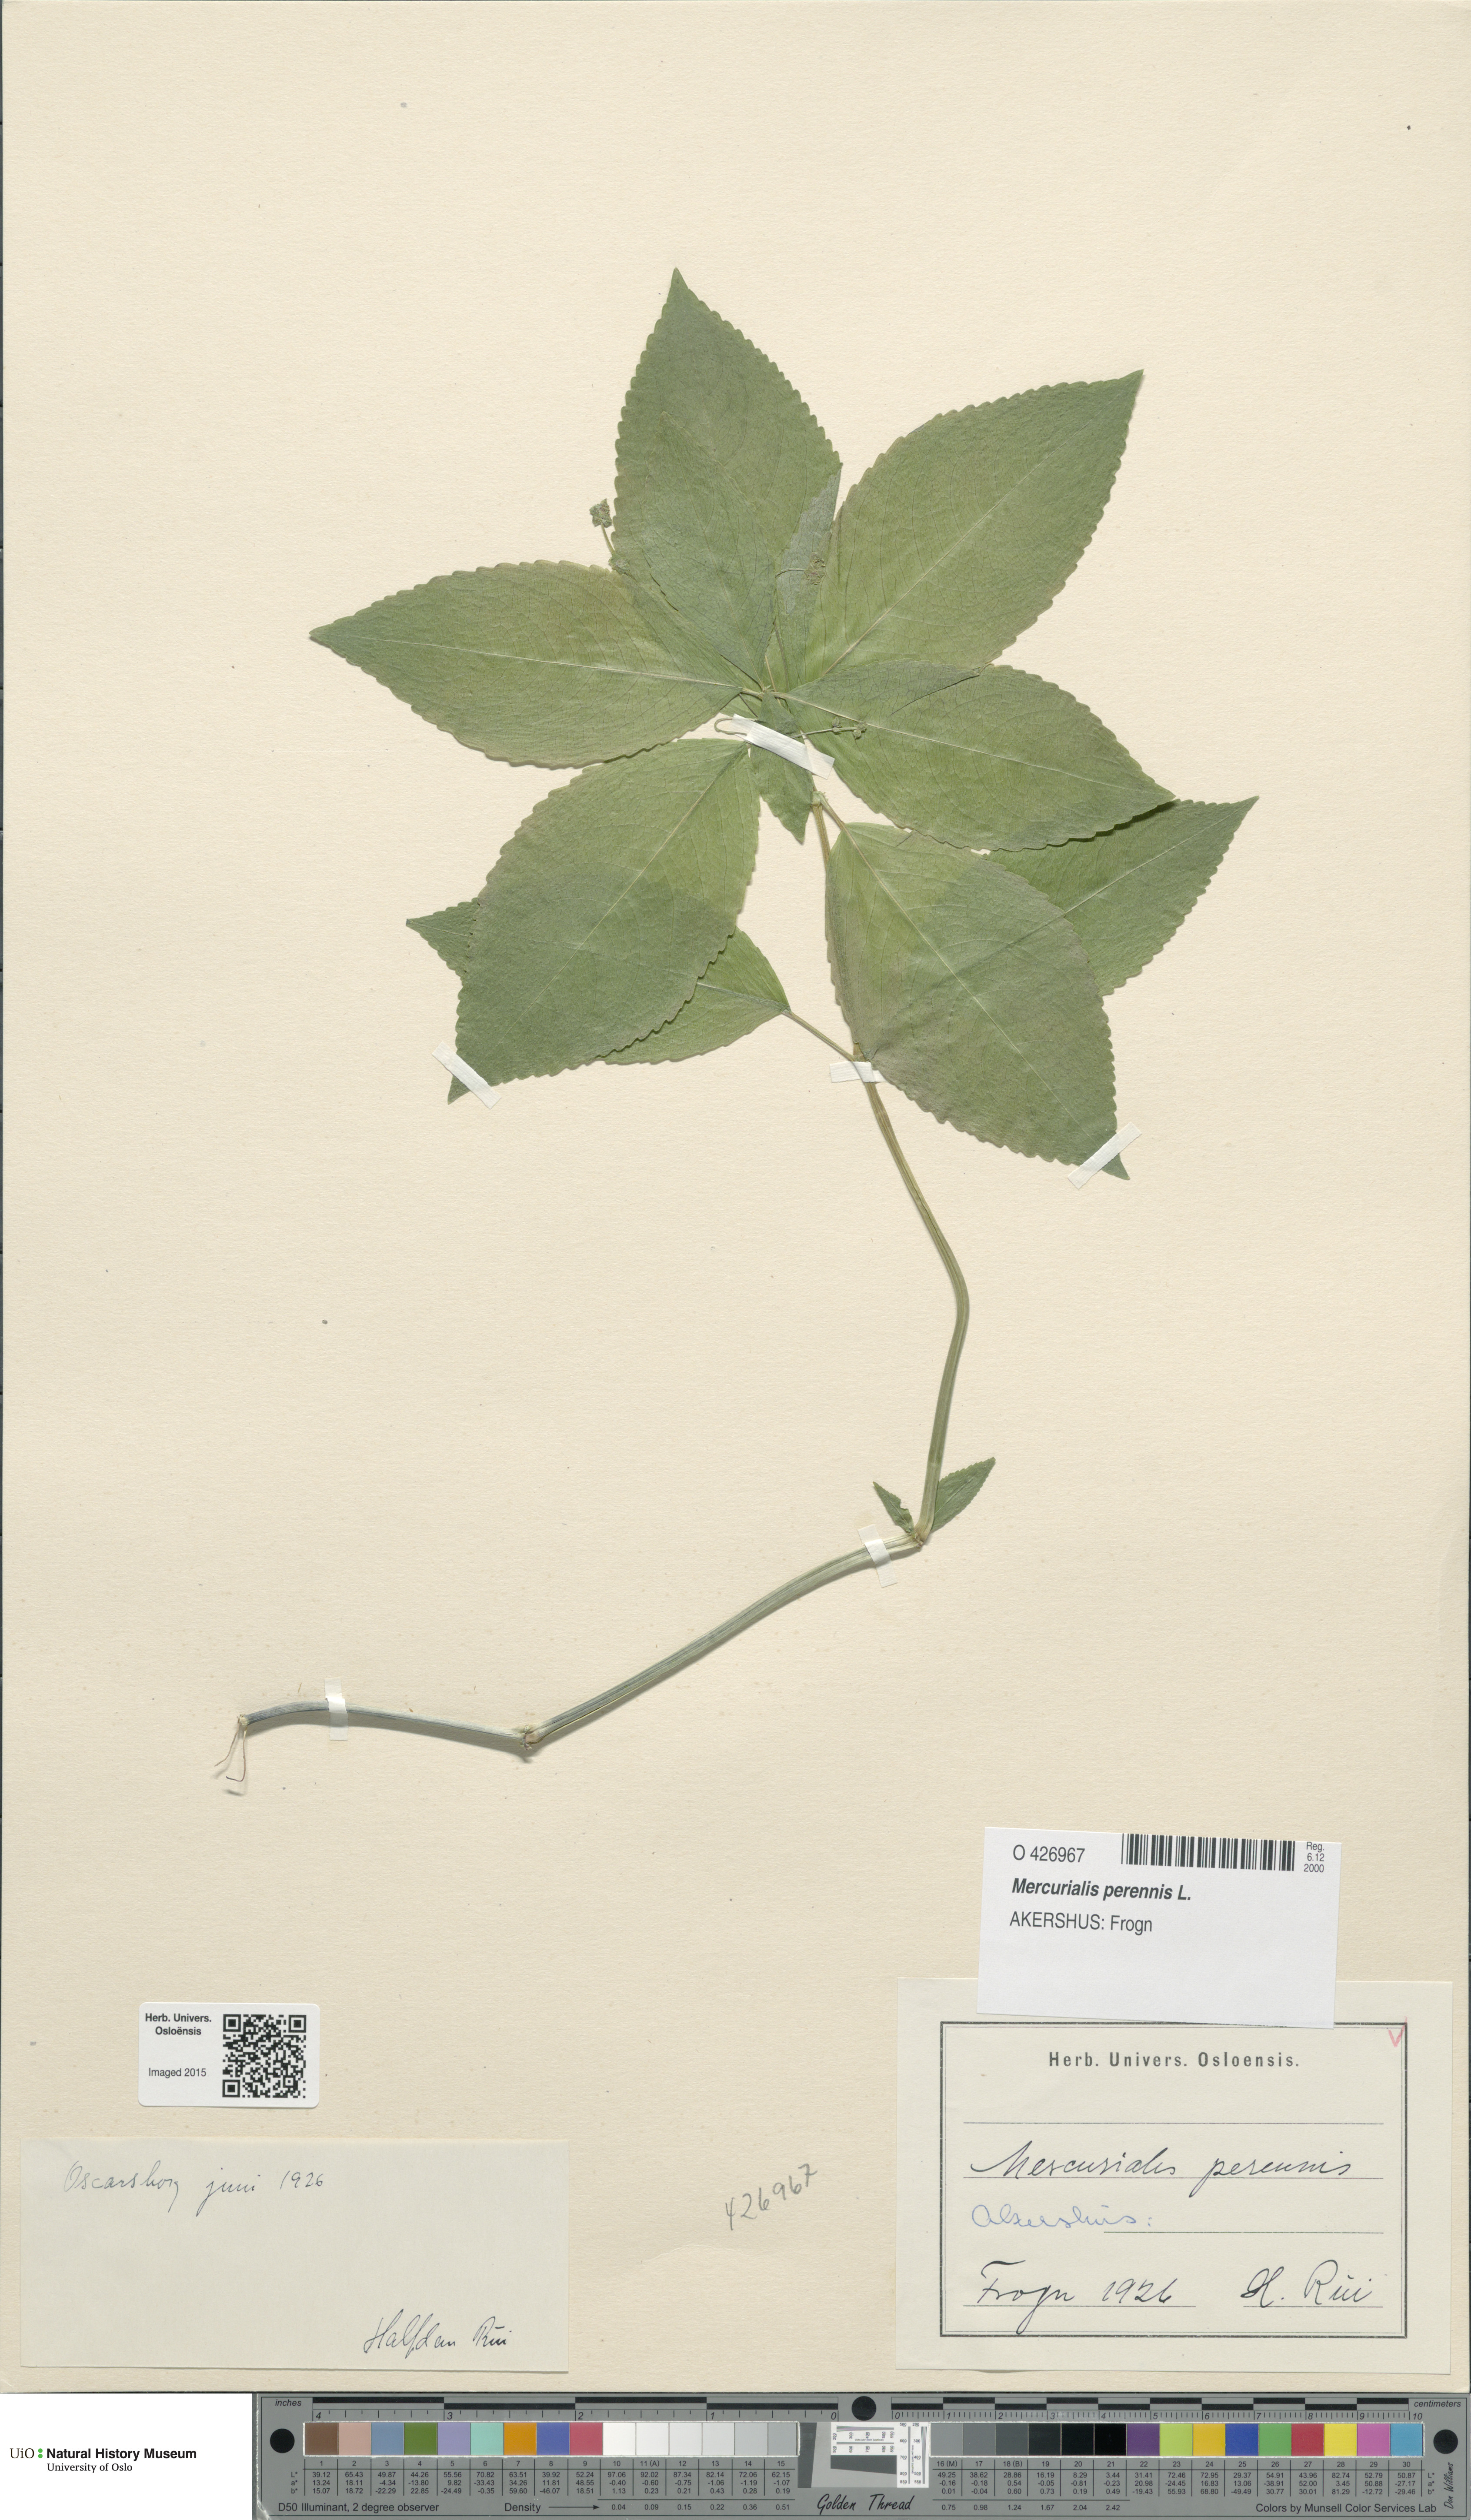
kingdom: Plantae
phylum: Tracheophyta
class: Magnoliopsida
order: Malpighiales
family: Euphorbiaceae
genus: Mercurialis
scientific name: Mercurialis perennis
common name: Dog mercury
